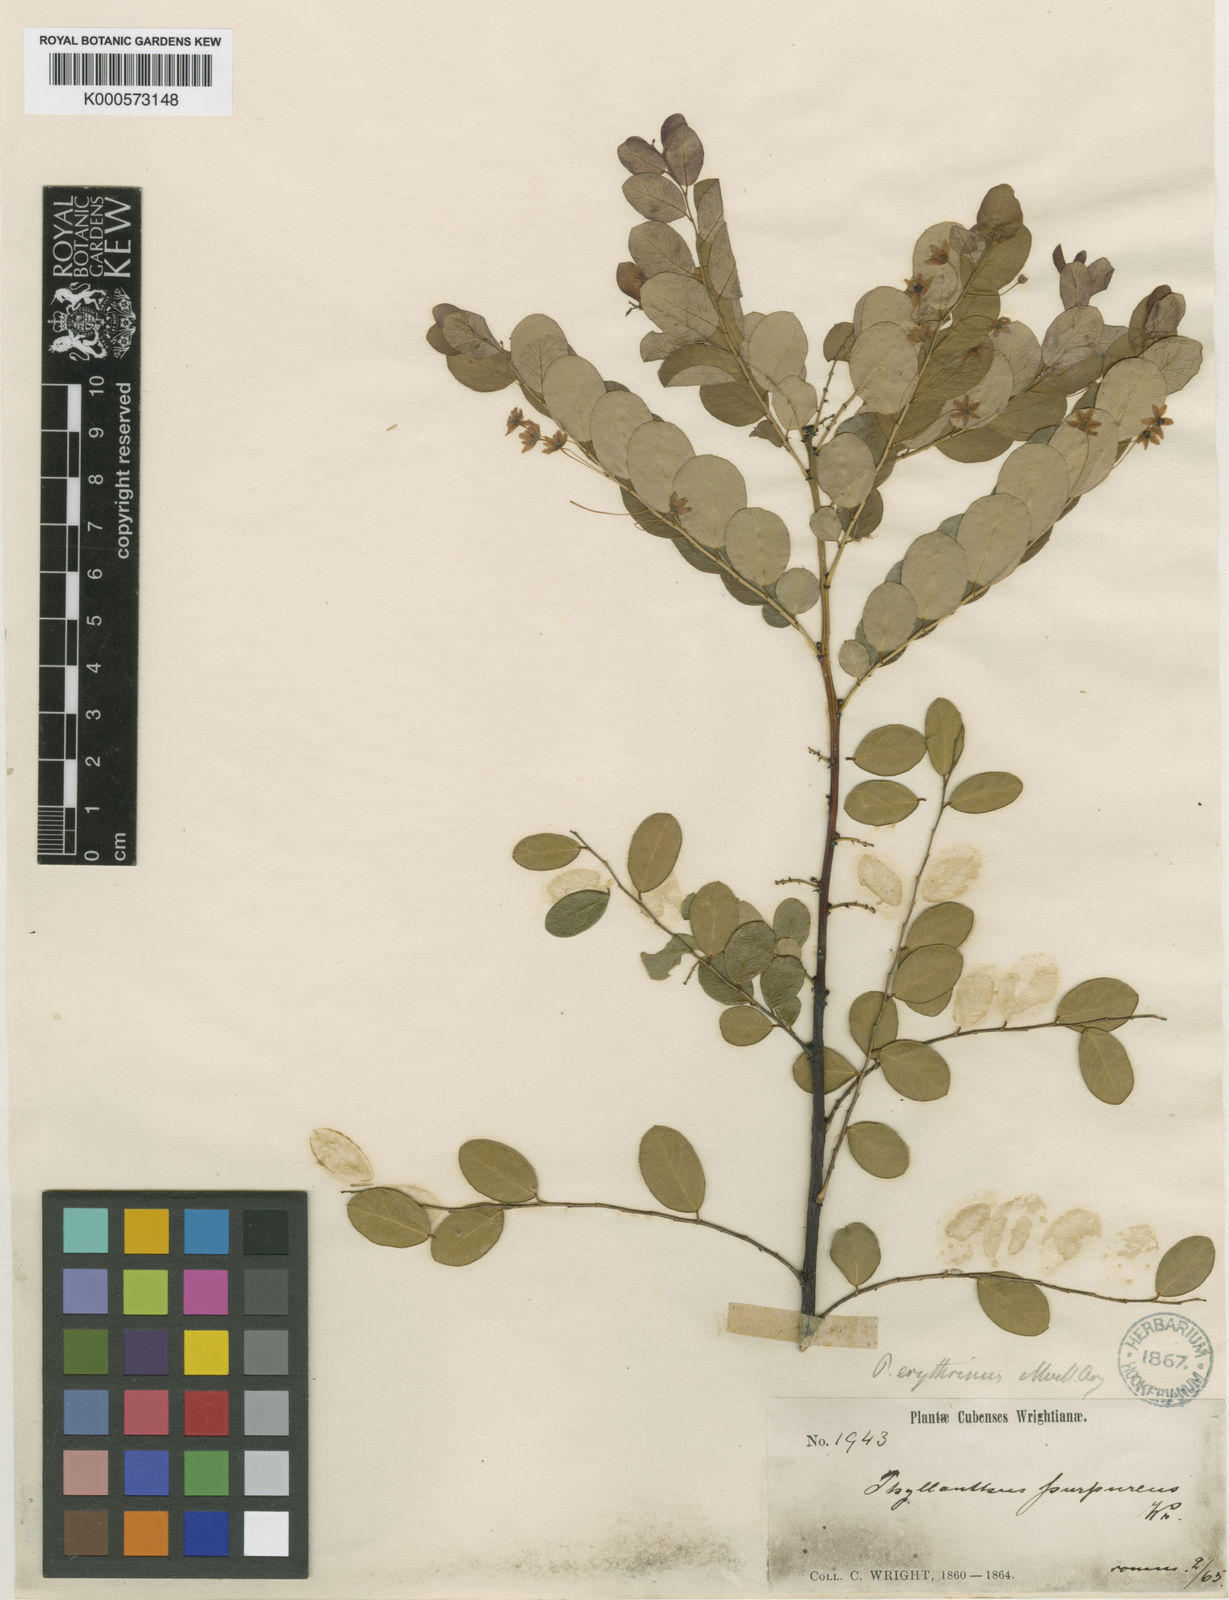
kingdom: Plantae
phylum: Tracheophyta
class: Magnoliopsida
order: Malpighiales
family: Phyllanthaceae
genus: Phyllanthus
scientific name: Phyllanthus
